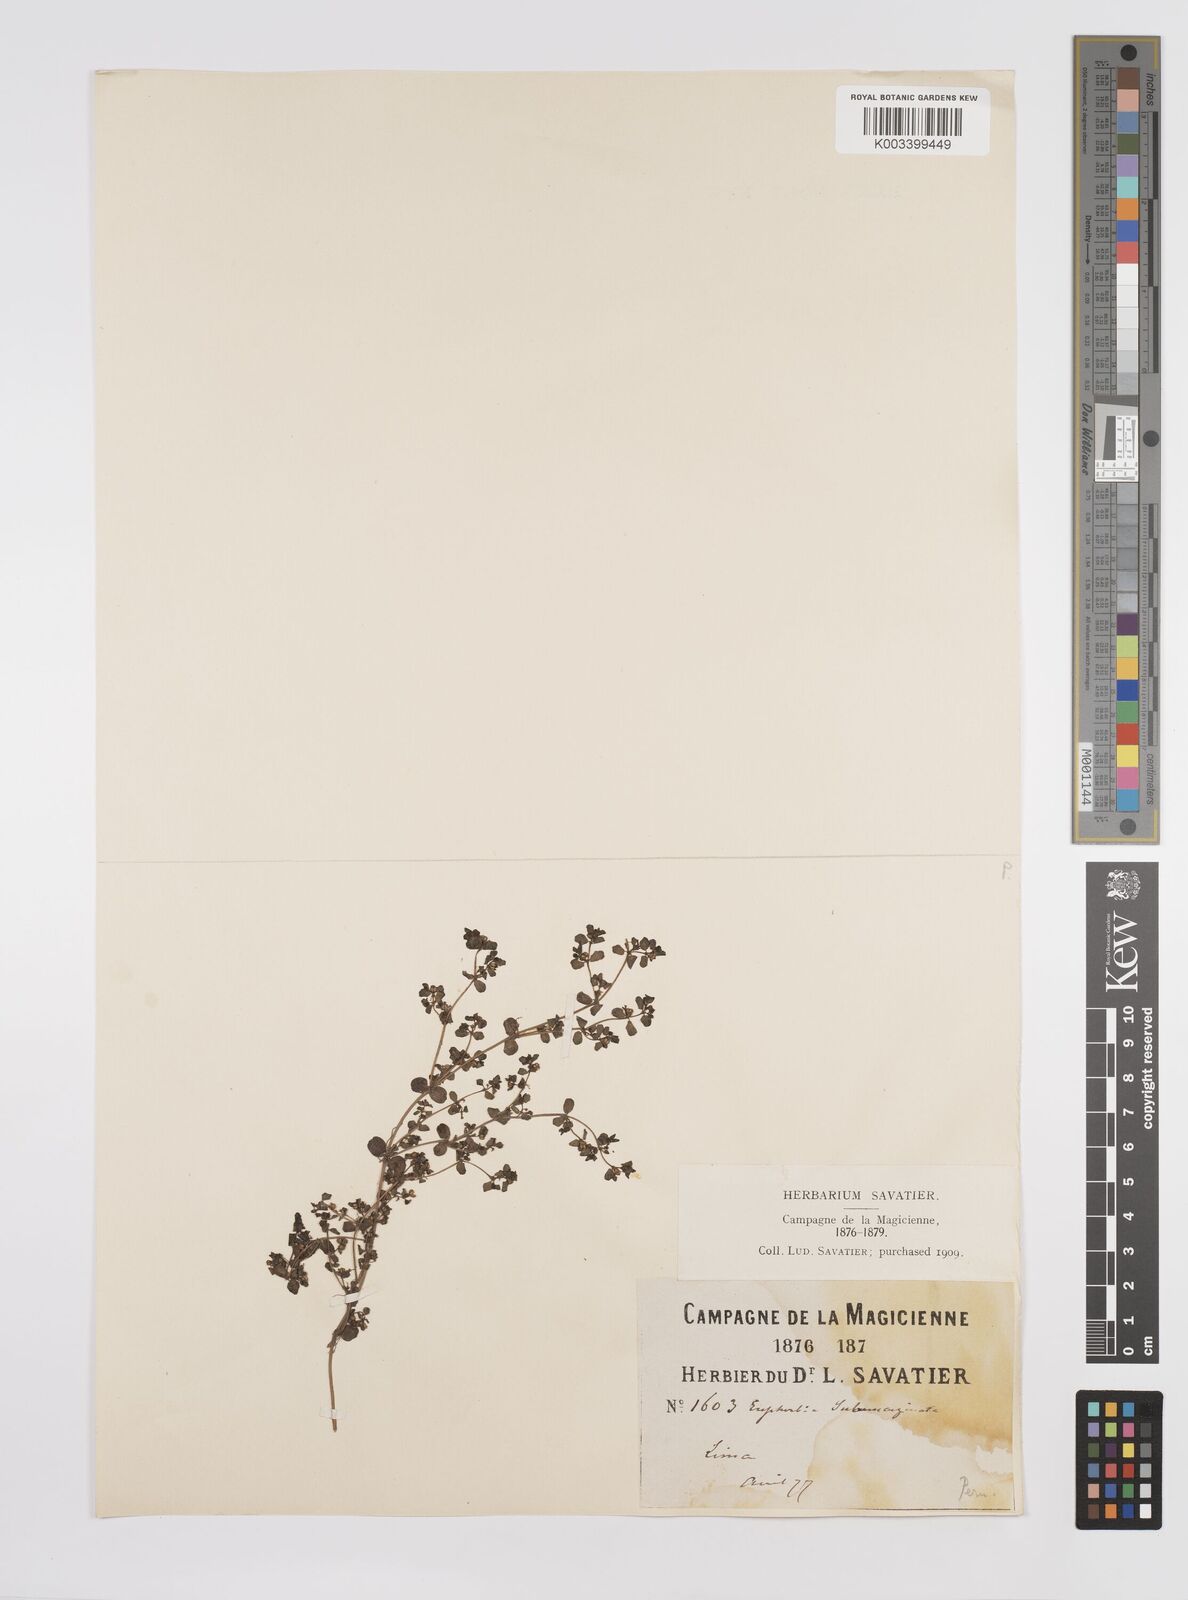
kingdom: Plantae
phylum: Tracheophyta
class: Magnoliopsida
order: Malpighiales
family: Euphorbiaceae
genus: Euphorbia
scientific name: Euphorbia
